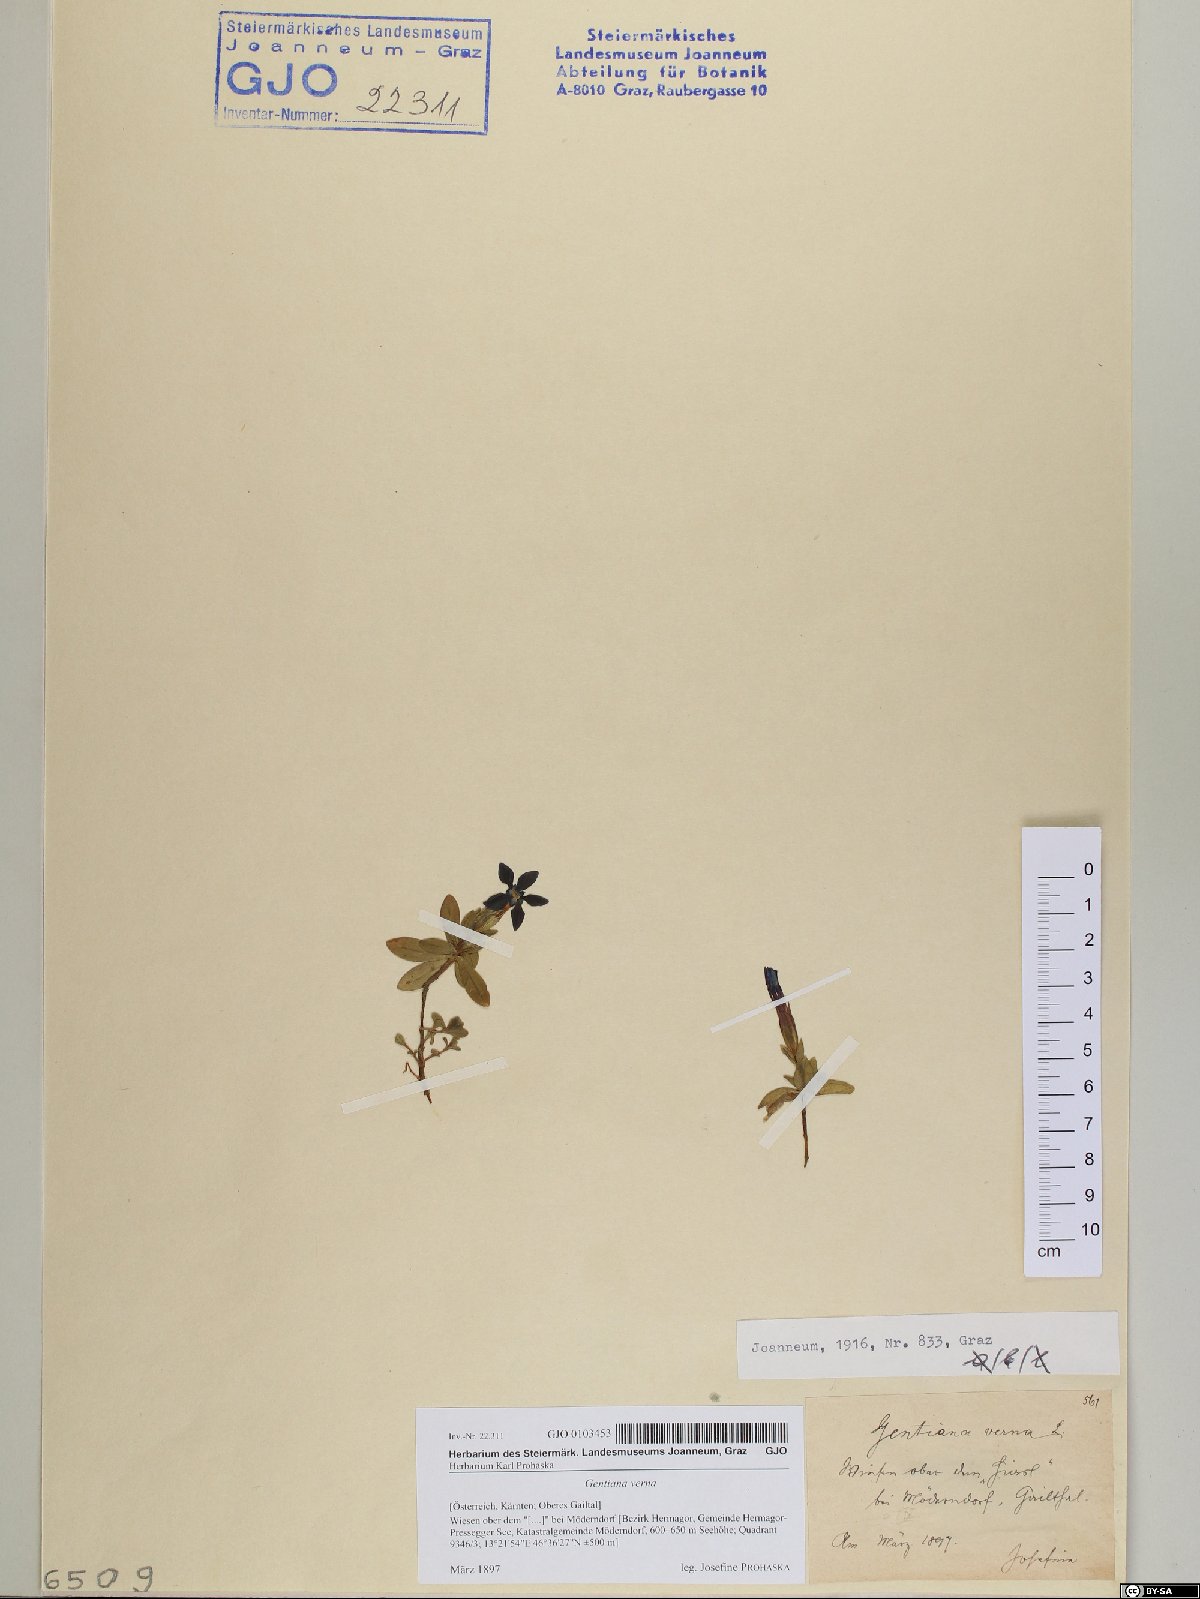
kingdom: Plantae
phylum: Tracheophyta
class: Magnoliopsida
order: Gentianales
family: Gentianaceae
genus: Gentiana
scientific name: Gentiana verna
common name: Spring gentian
